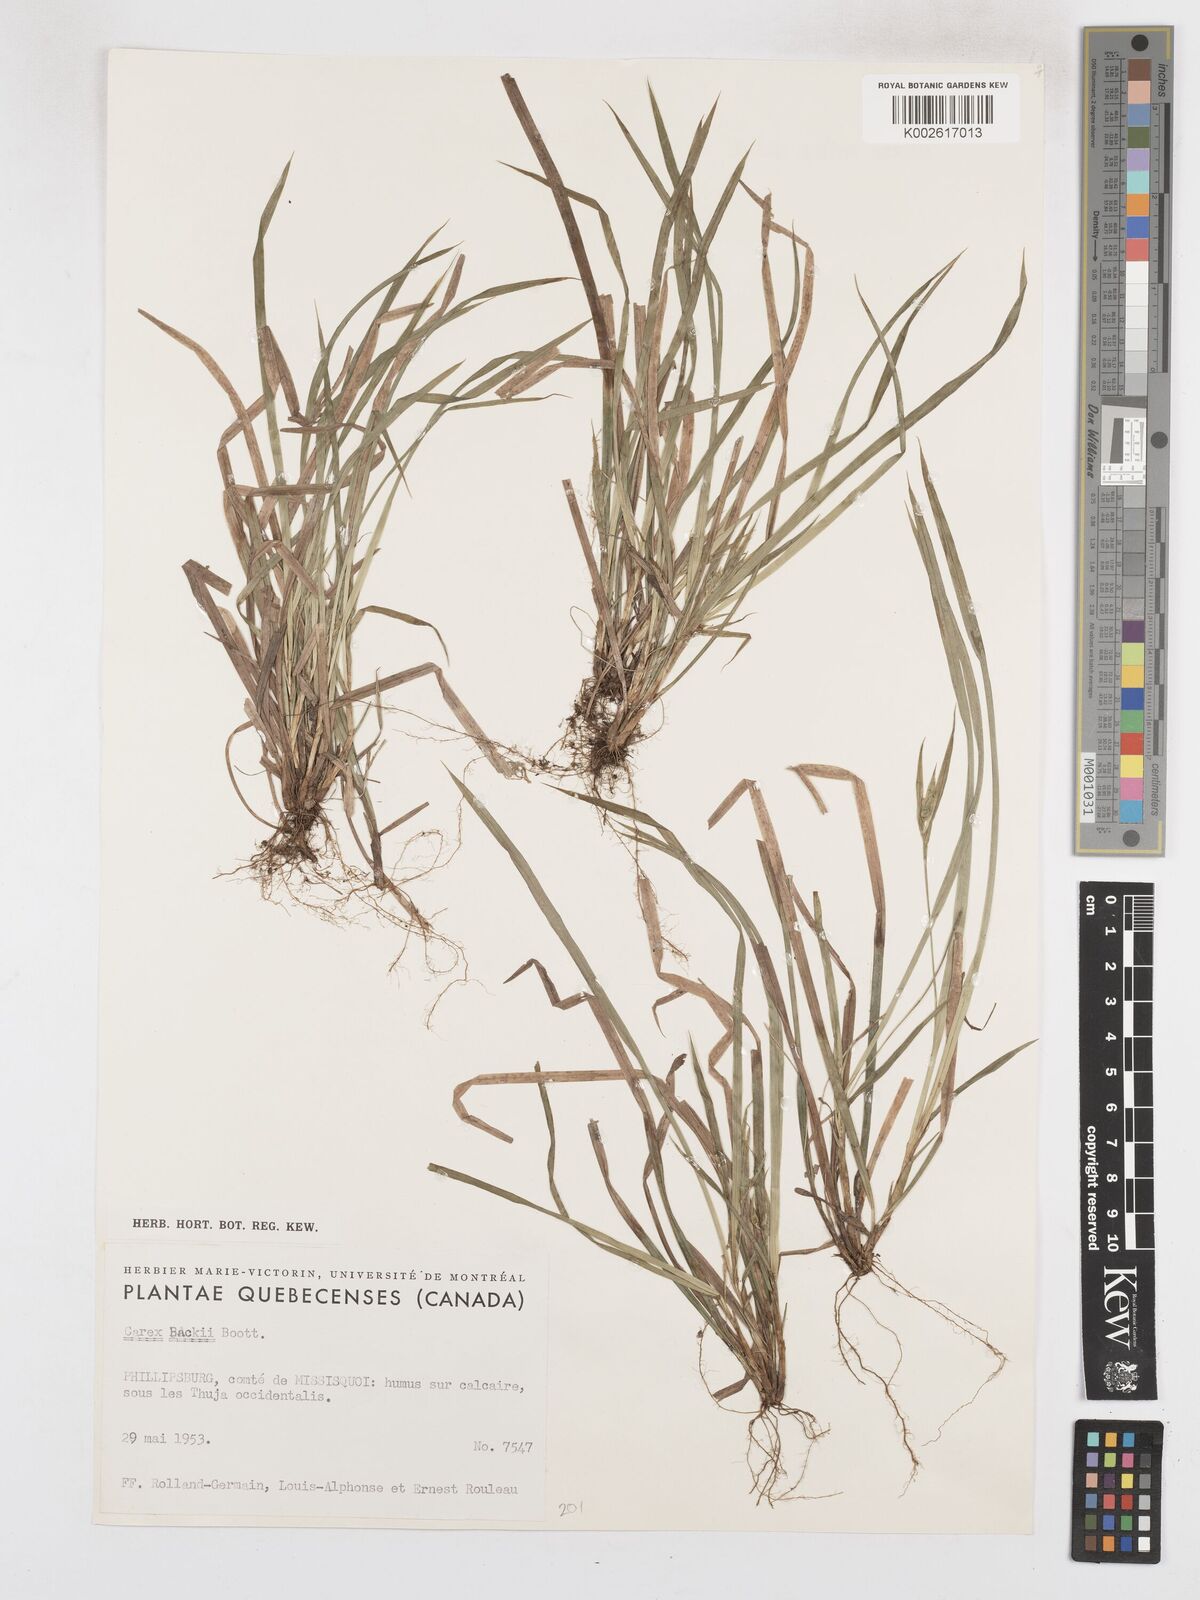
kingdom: Plantae
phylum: Tracheophyta
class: Liliopsida
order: Poales
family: Cyperaceae
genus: Carex
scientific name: Carex backii
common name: Back's sedge
